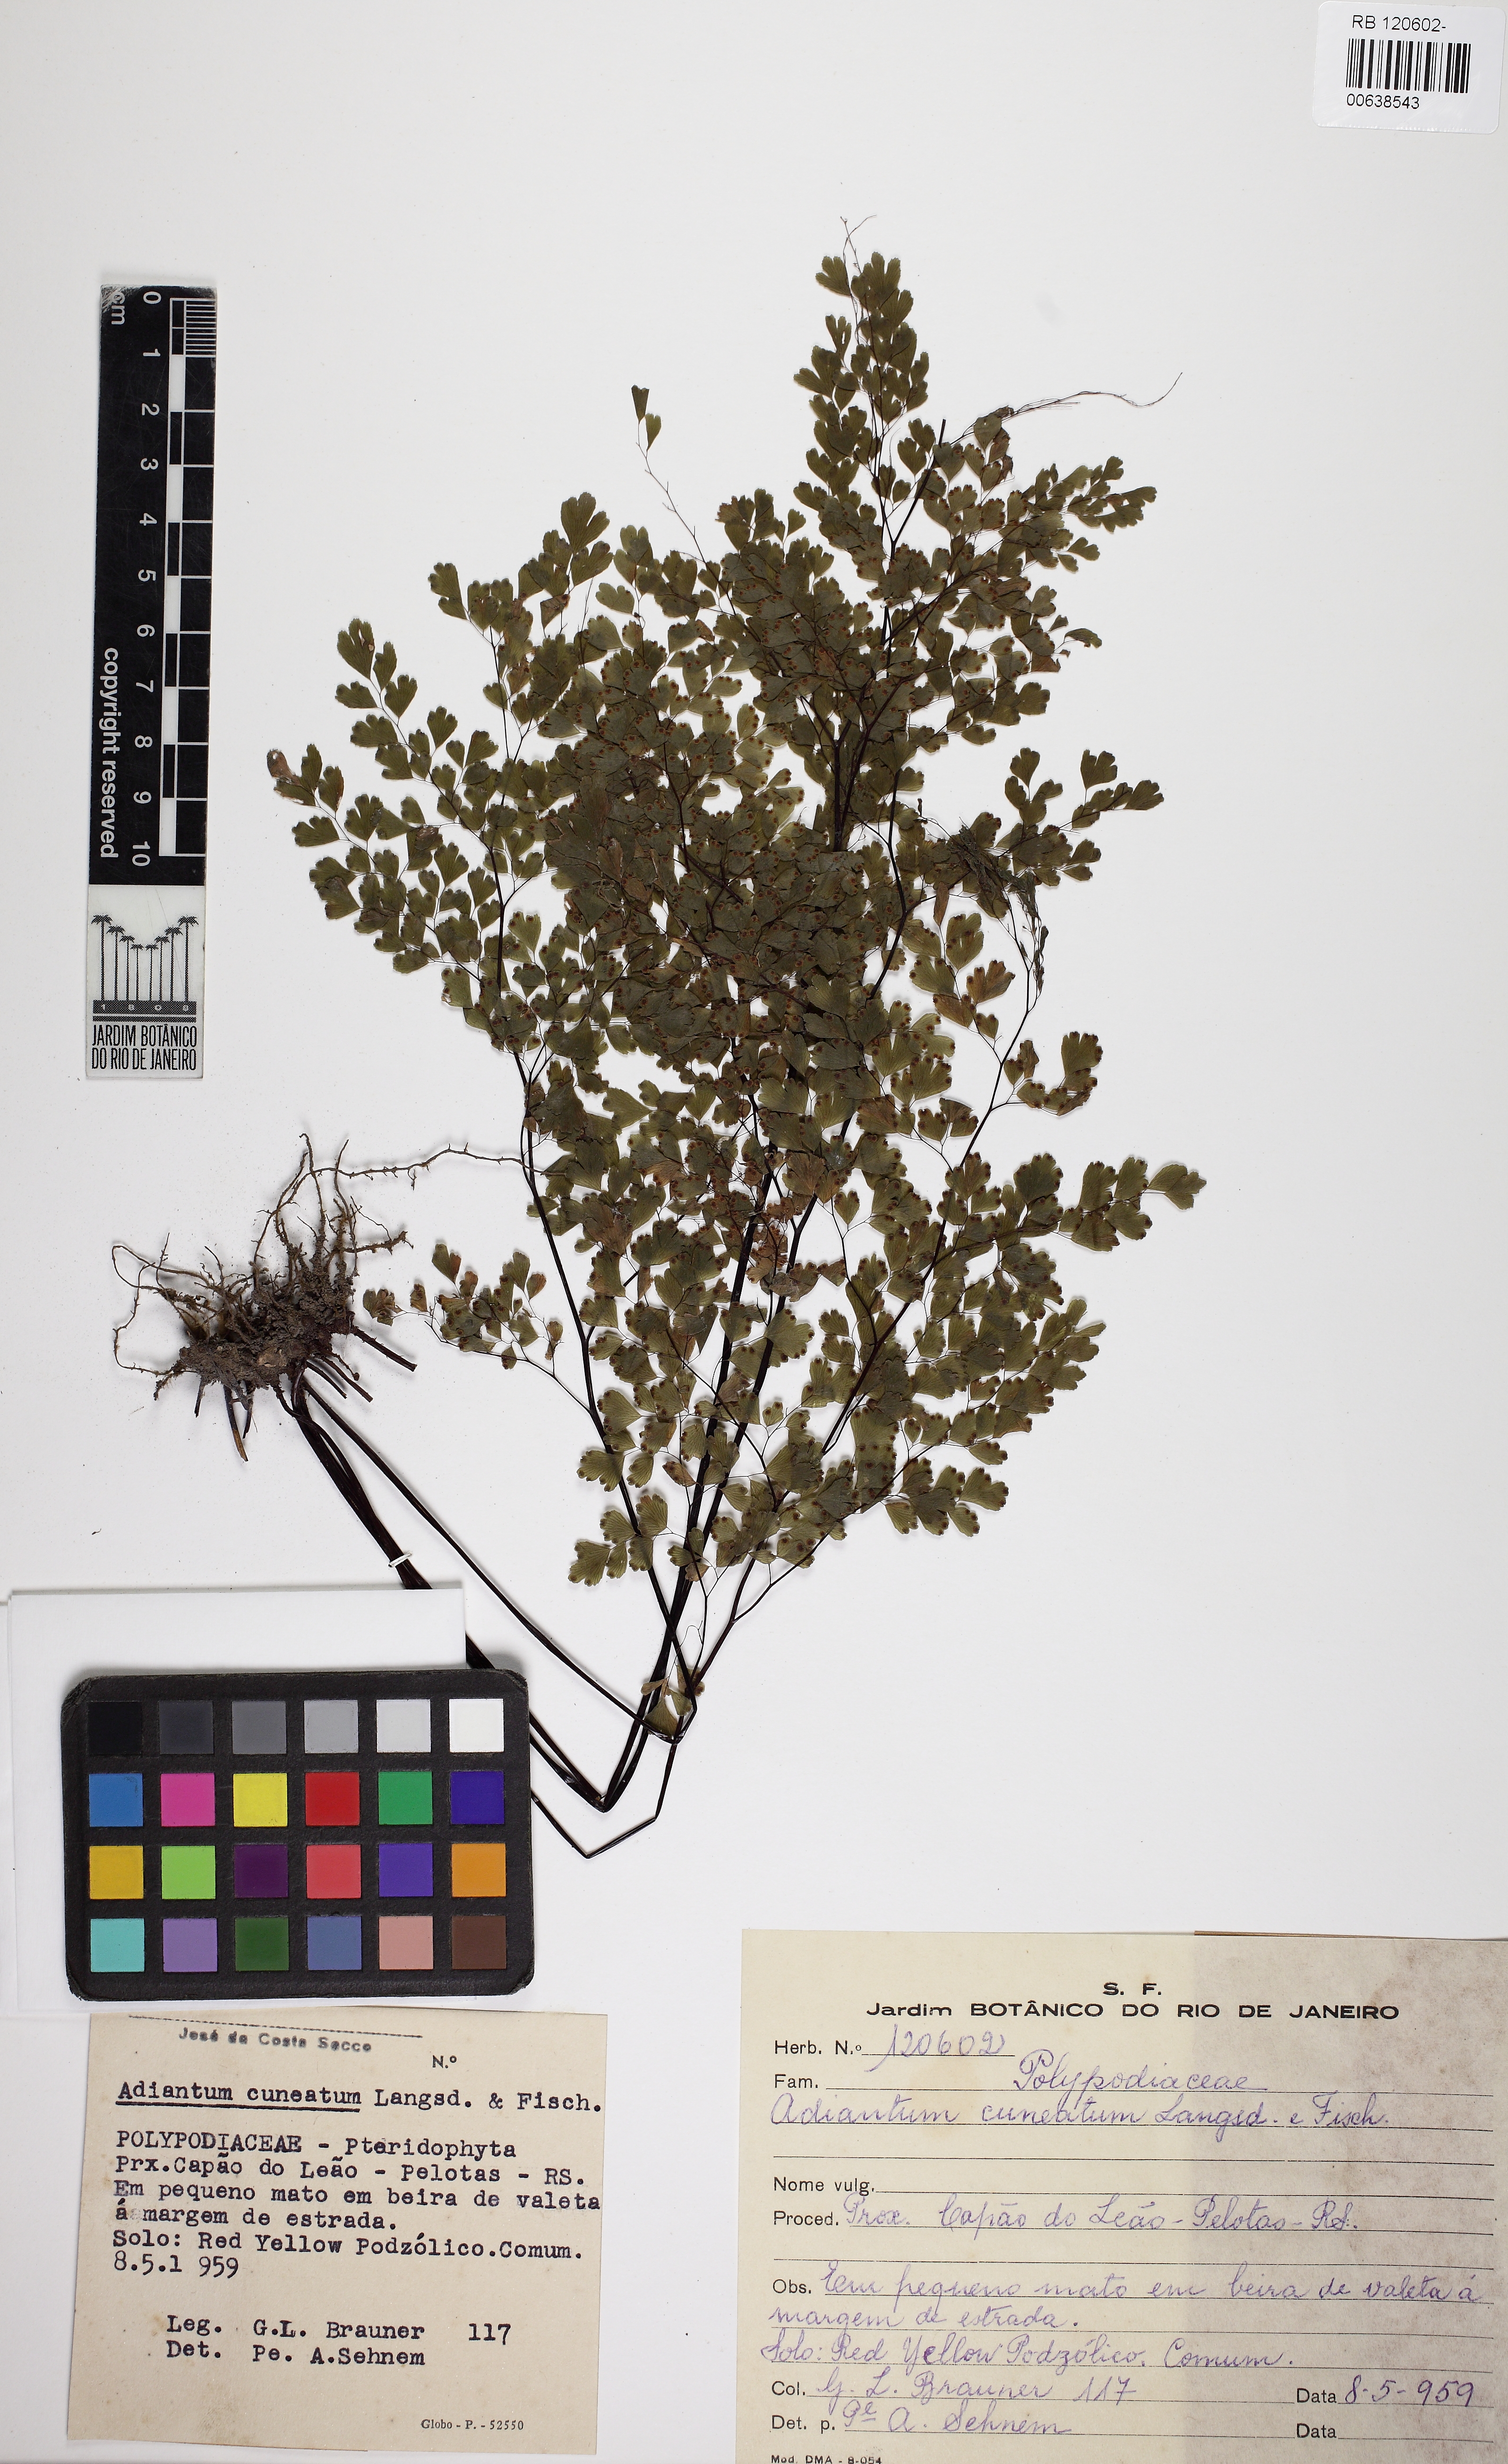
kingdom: Plantae
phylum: Tracheophyta
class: Polypodiopsida
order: Polypodiales
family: Pteridaceae
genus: Adiantum
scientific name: Adiantum raddianum
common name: Delta maidenhair fern
